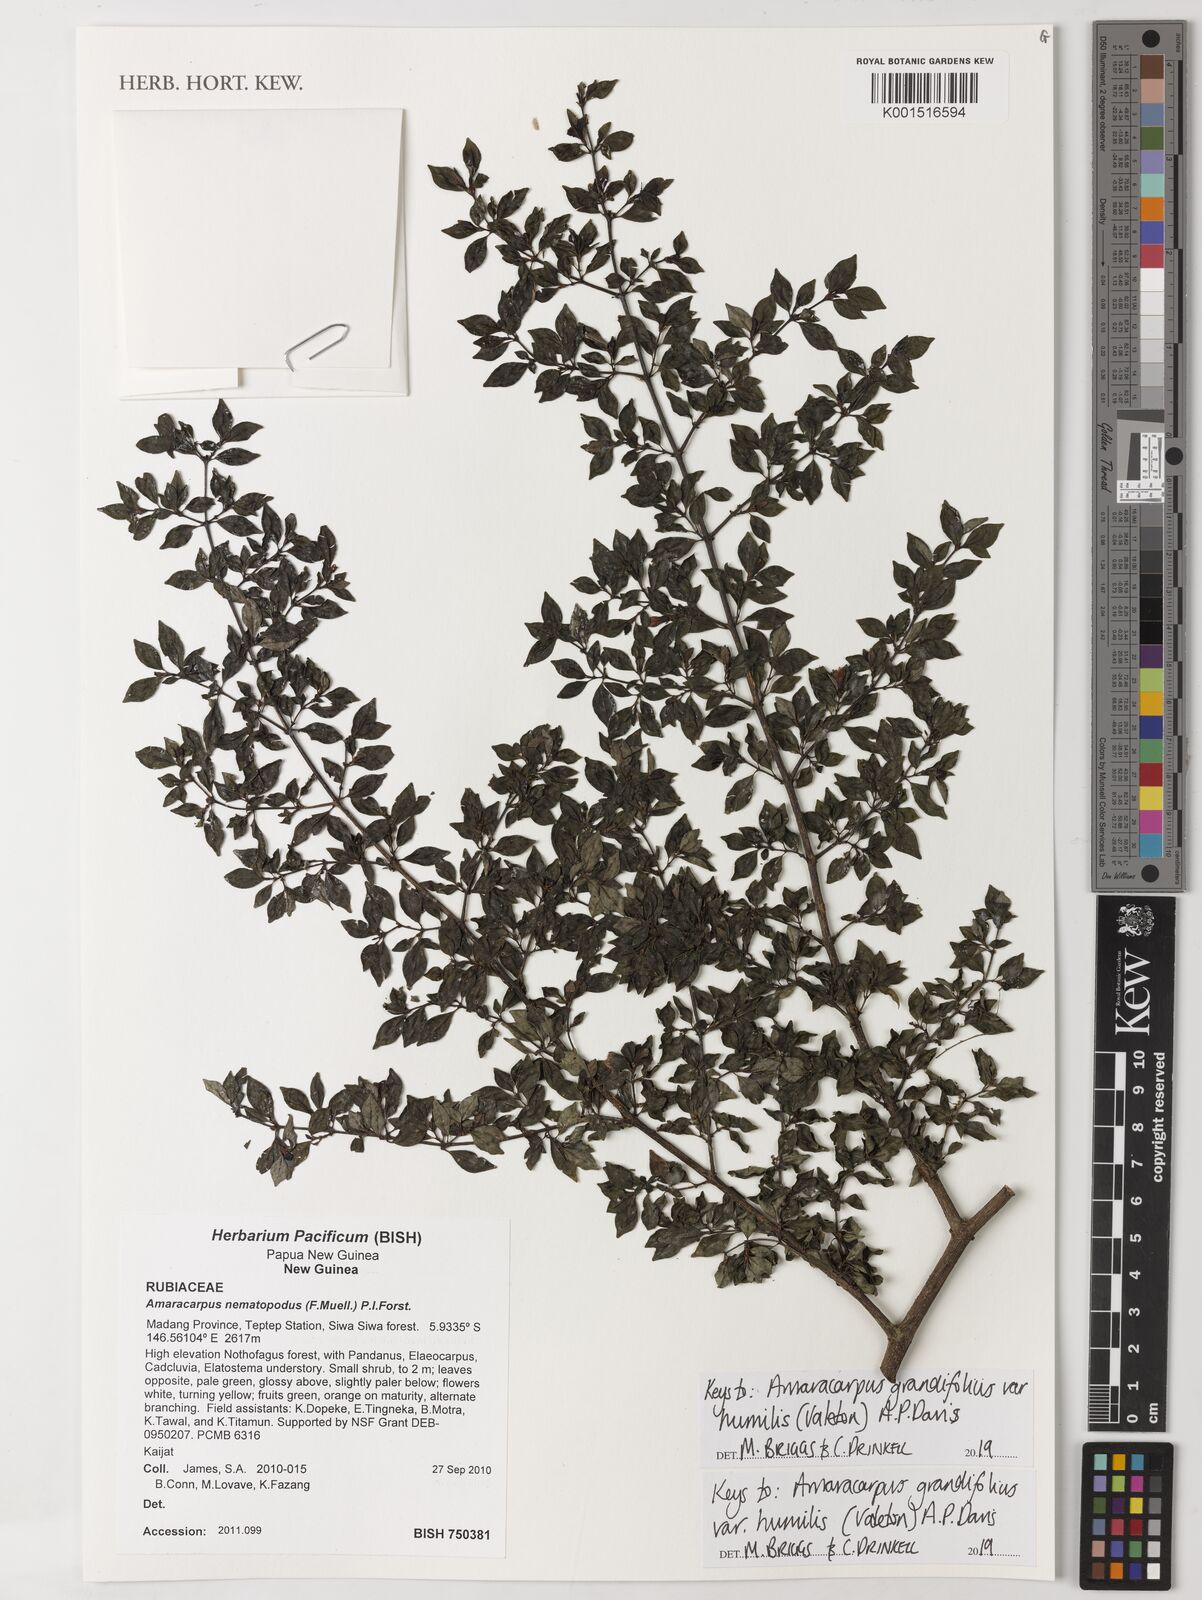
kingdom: Plantae
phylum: Tracheophyta
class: Magnoliopsida
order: Gentianales
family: Rubiaceae
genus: Amaracarpus
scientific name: Amaracarpus grandifolius
